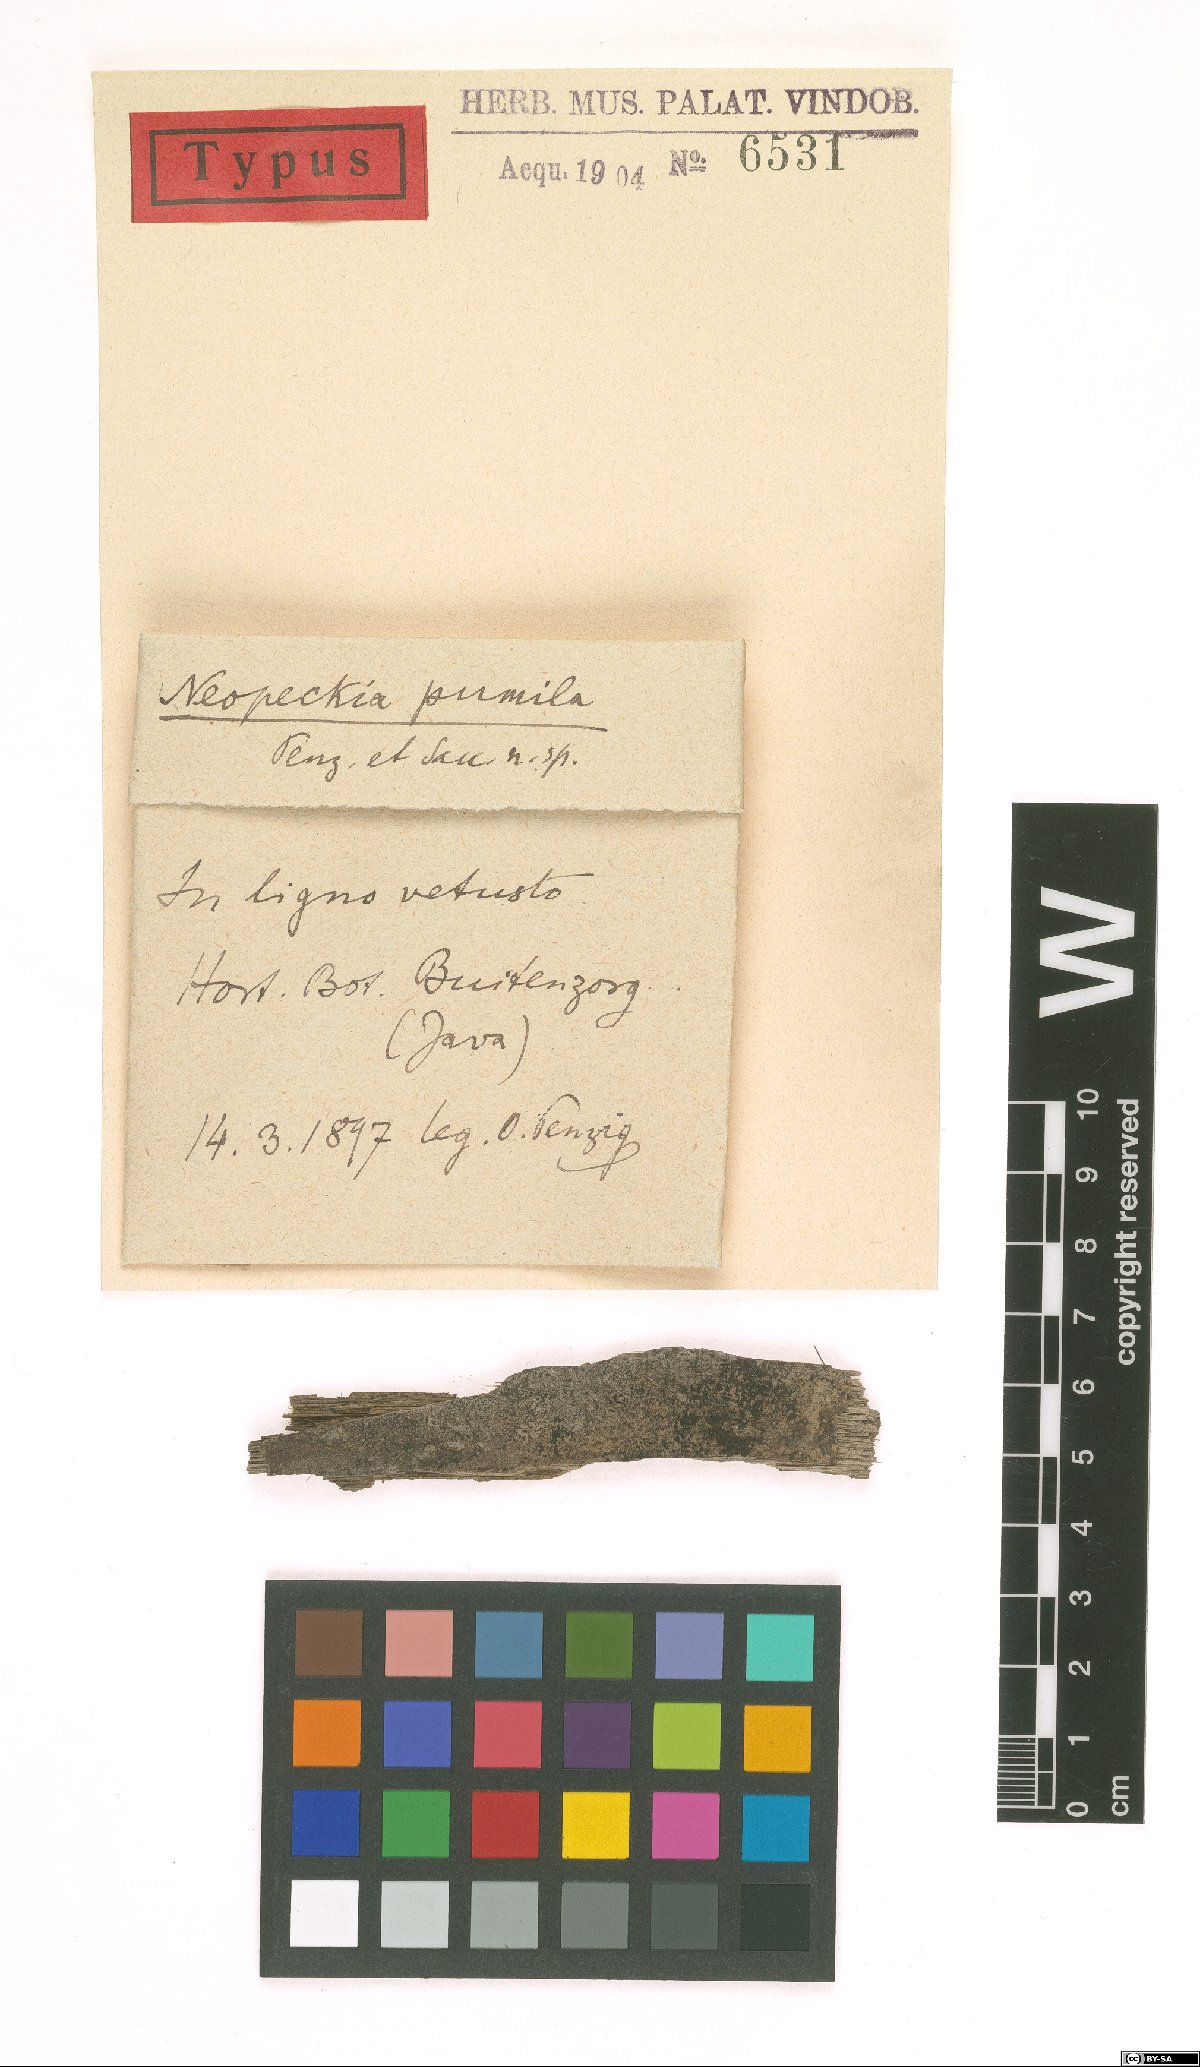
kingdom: Fungi
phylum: Ascomycota
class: Dothideomycetes
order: Dothideales
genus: Neopeckia
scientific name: Neopeckia
